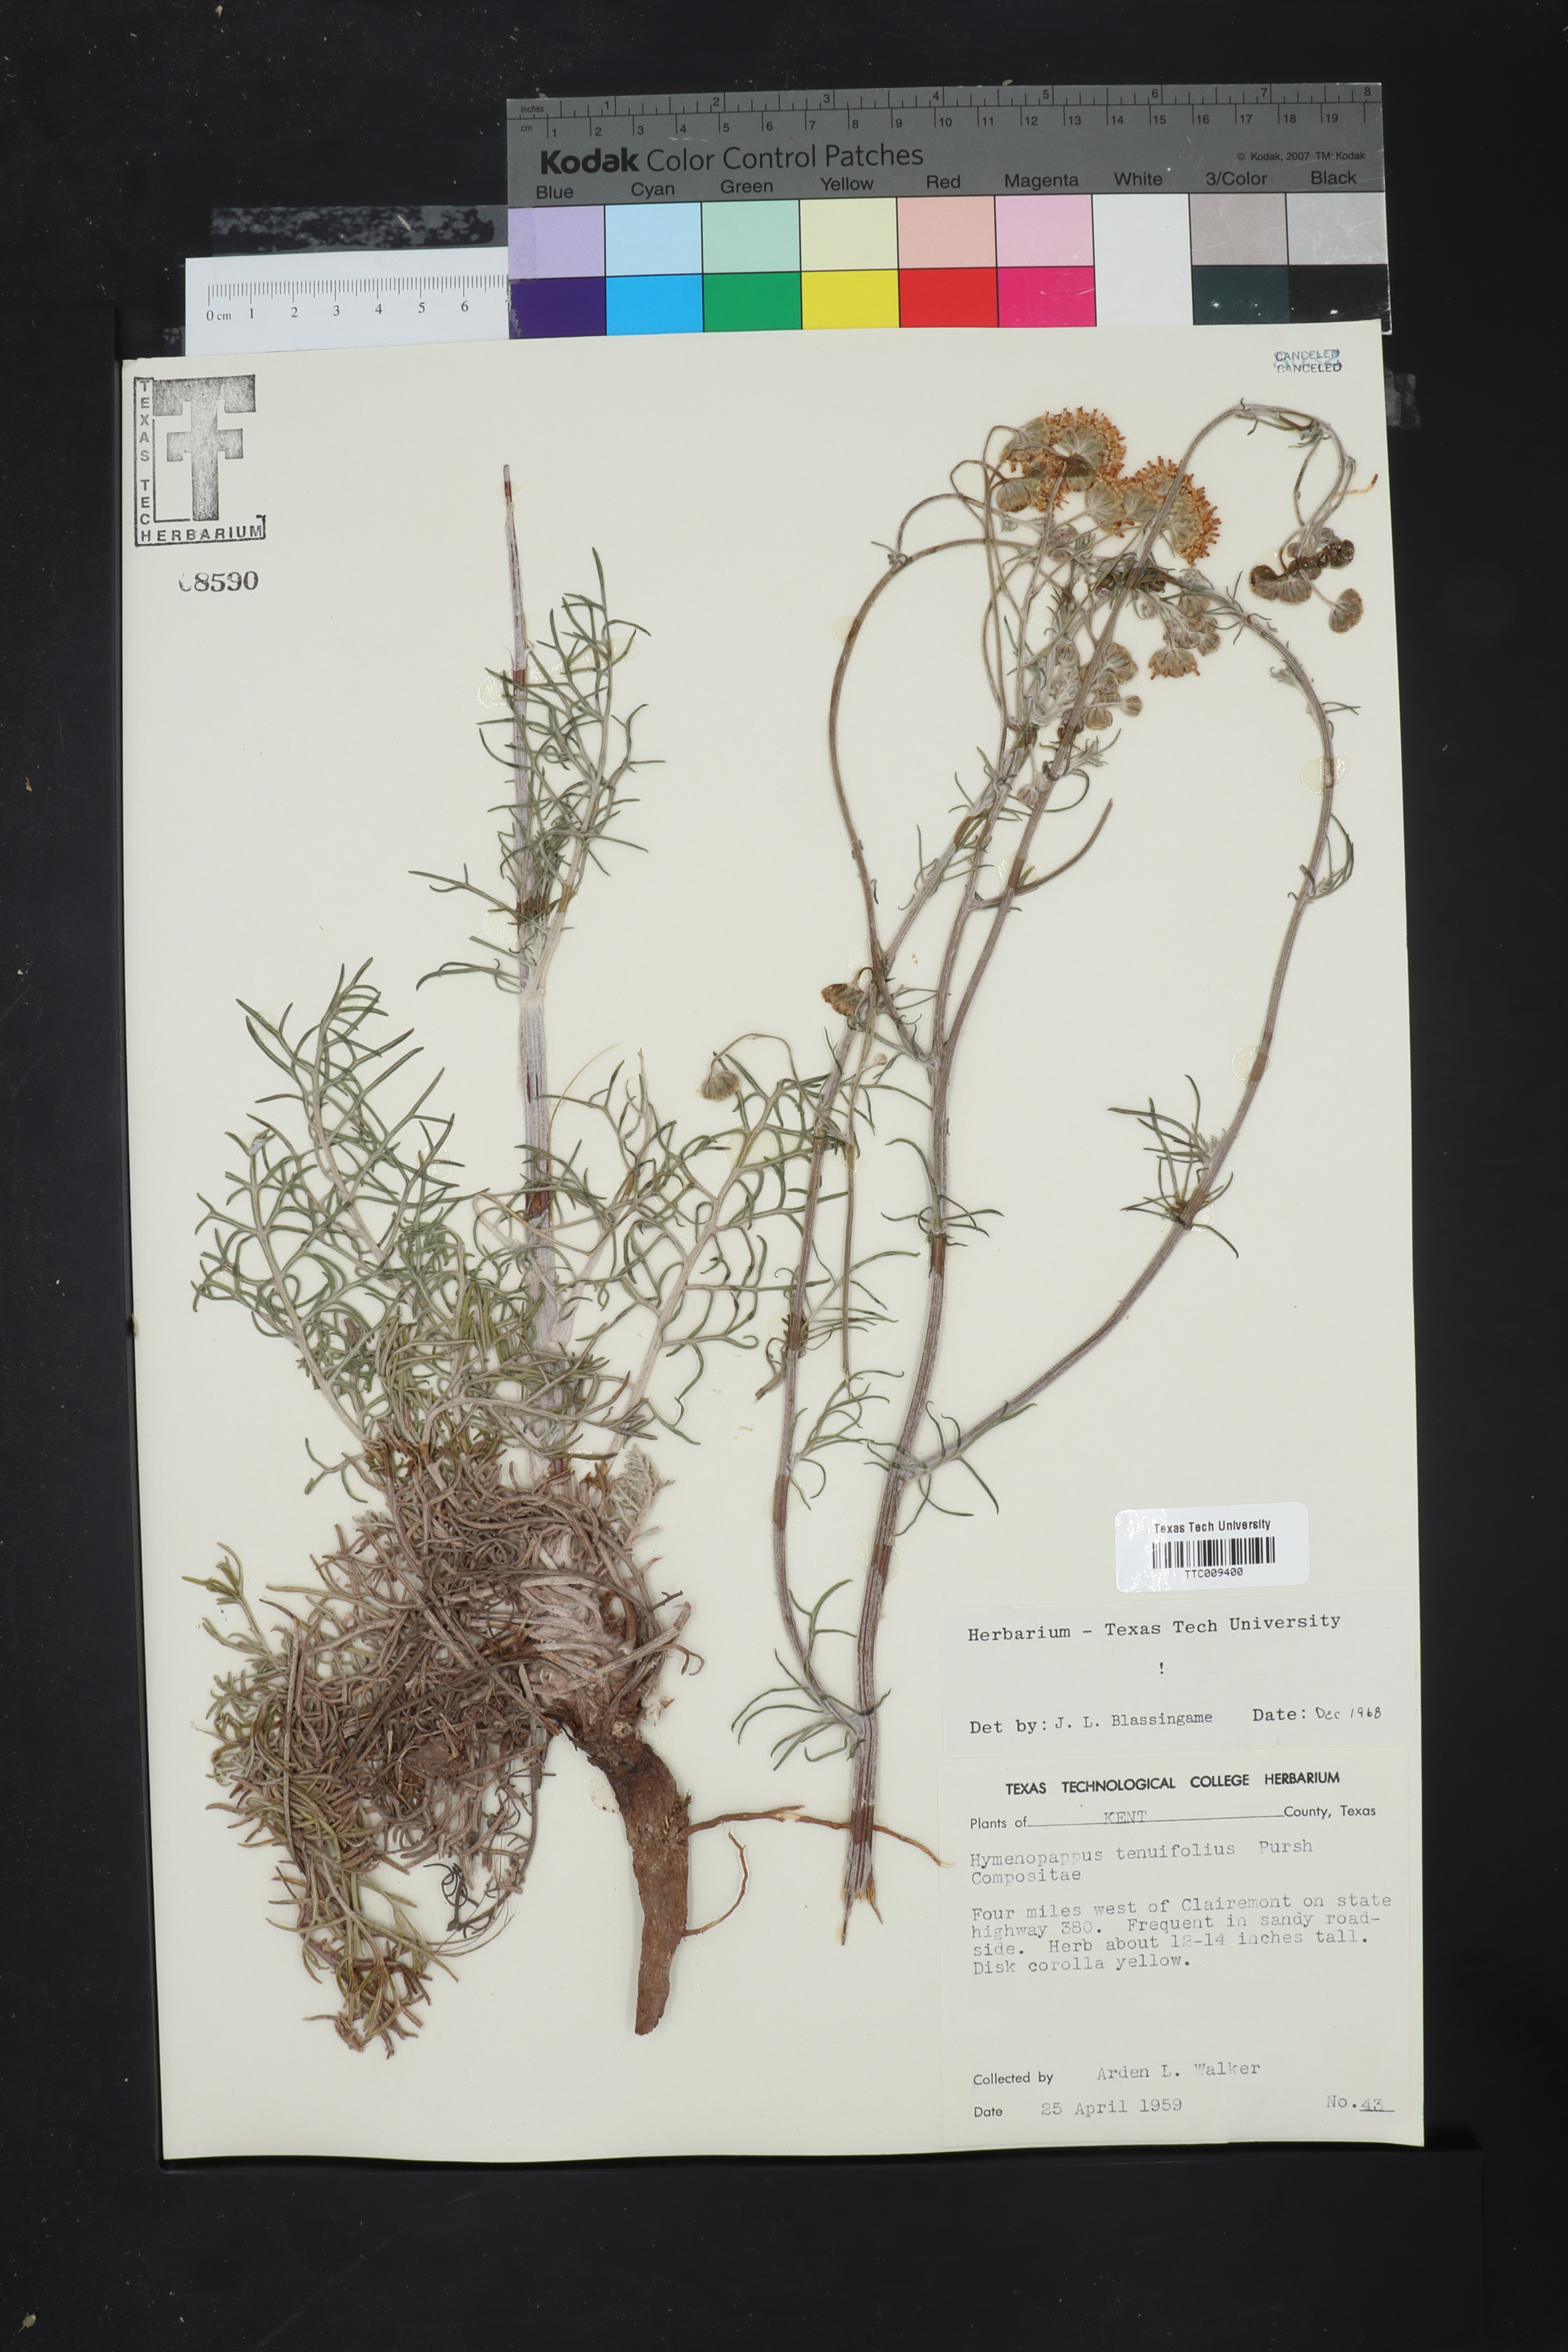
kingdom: Plantae
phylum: Tracheophyta
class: Magnoliopsida
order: Asterales
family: Asteraceae
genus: Hymenopappus
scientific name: Hymenopappus tenuifolius
